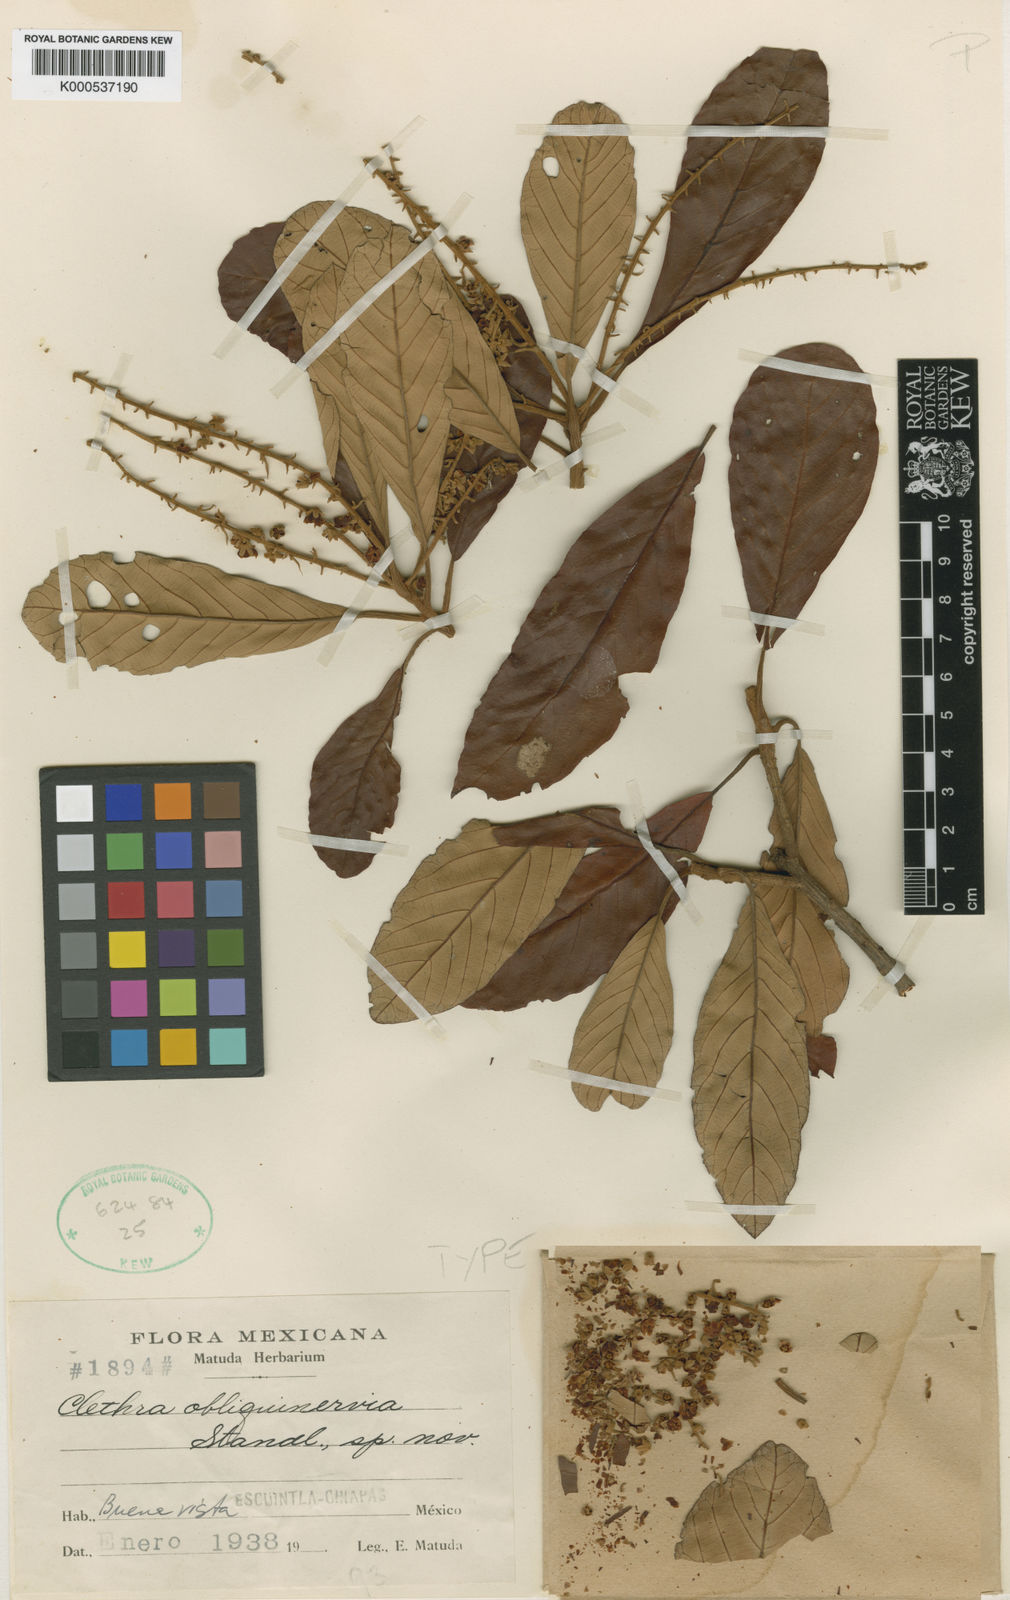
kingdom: Plantae
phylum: Tracheophyta
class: Magnoliopsida
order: Ericales
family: Clethraceae
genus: Clethra
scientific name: Clethra hondurensis
